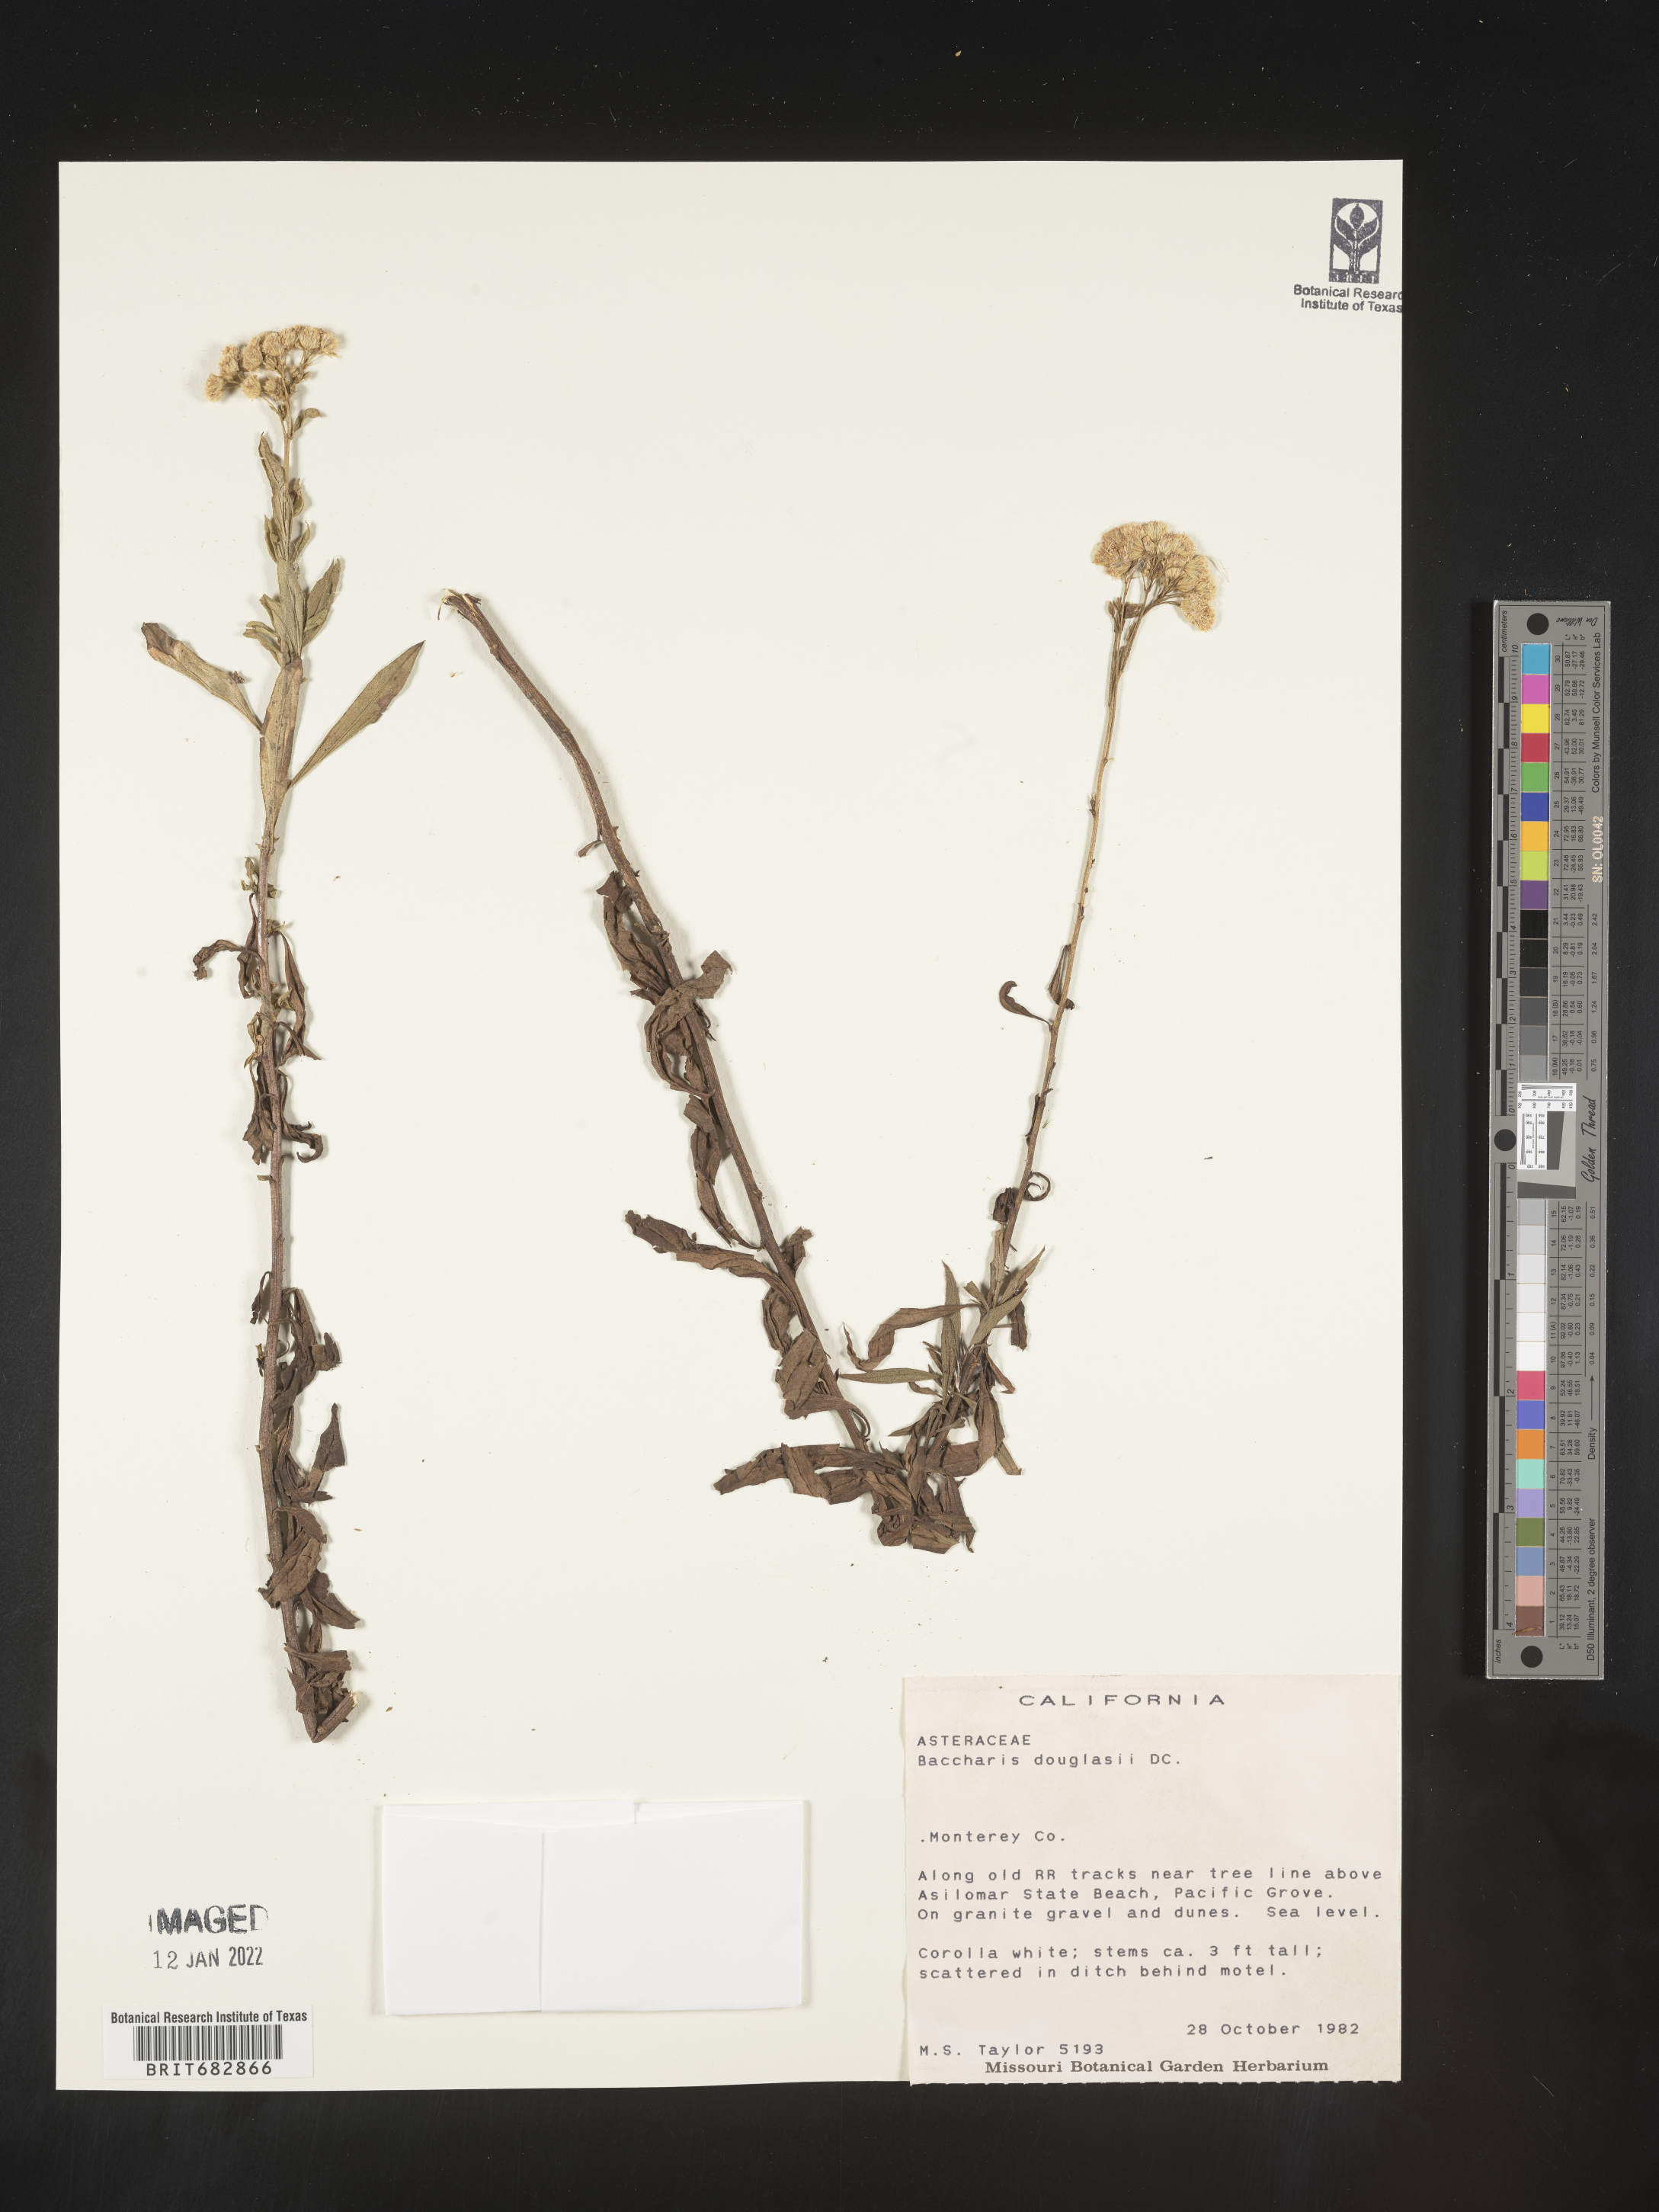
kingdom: Plantae
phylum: Tracheophyta
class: Magnoliopsida
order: Asterales
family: Asteraceae
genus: Baccharis
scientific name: Baccharis douglasii
